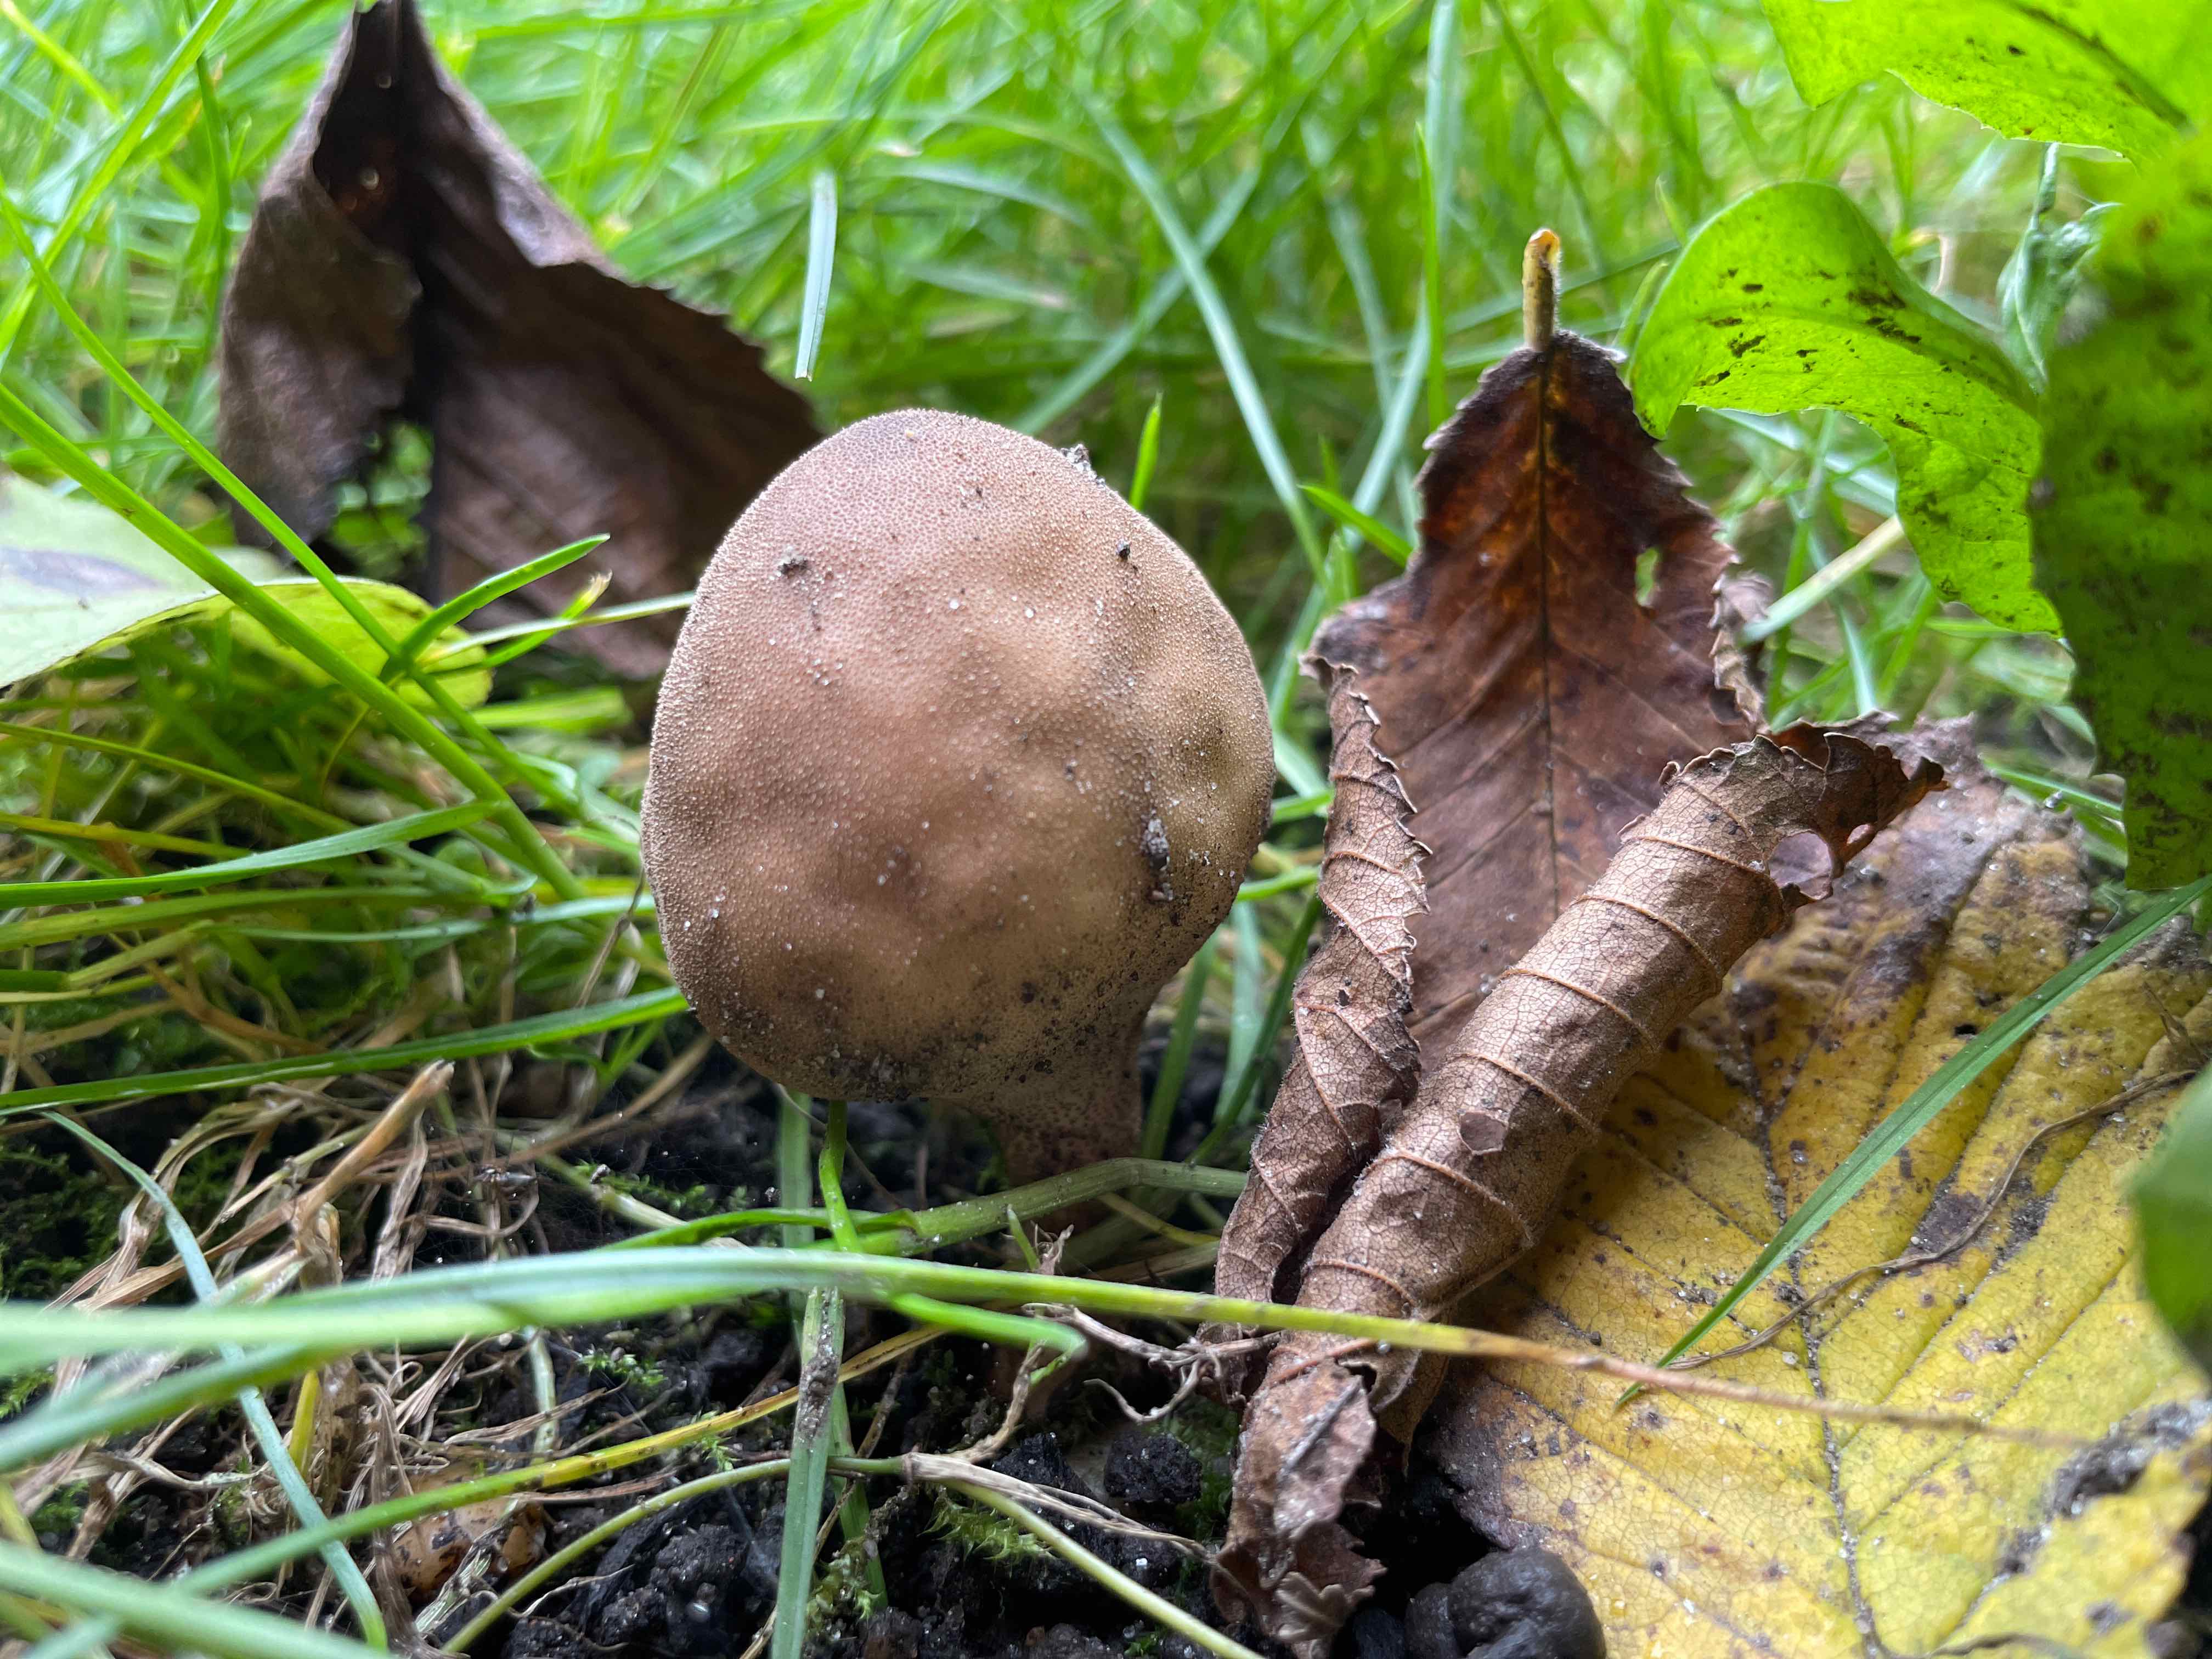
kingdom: Fungi
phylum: Basidiomycota
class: Agaricomycetes
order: Agaricales
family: Lycoperdaceae
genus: Apioperdon
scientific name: Apioperdon pyriforme
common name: pære-støvbold
